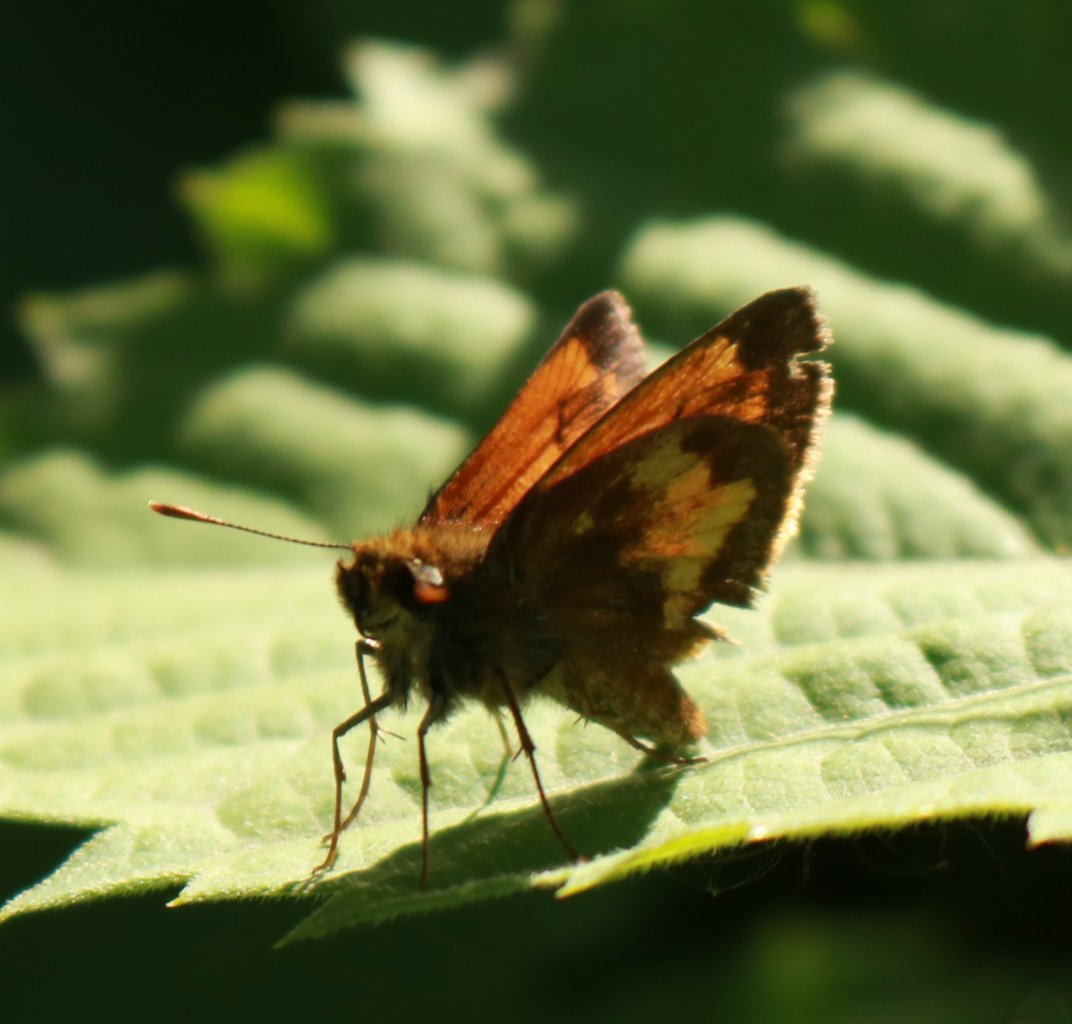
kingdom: Animalia
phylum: Arthropoda
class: Insecta
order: Lepidoptera
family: Hesperiidae
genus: Lon
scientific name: Lon hobomok
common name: Hobomok Skipper
